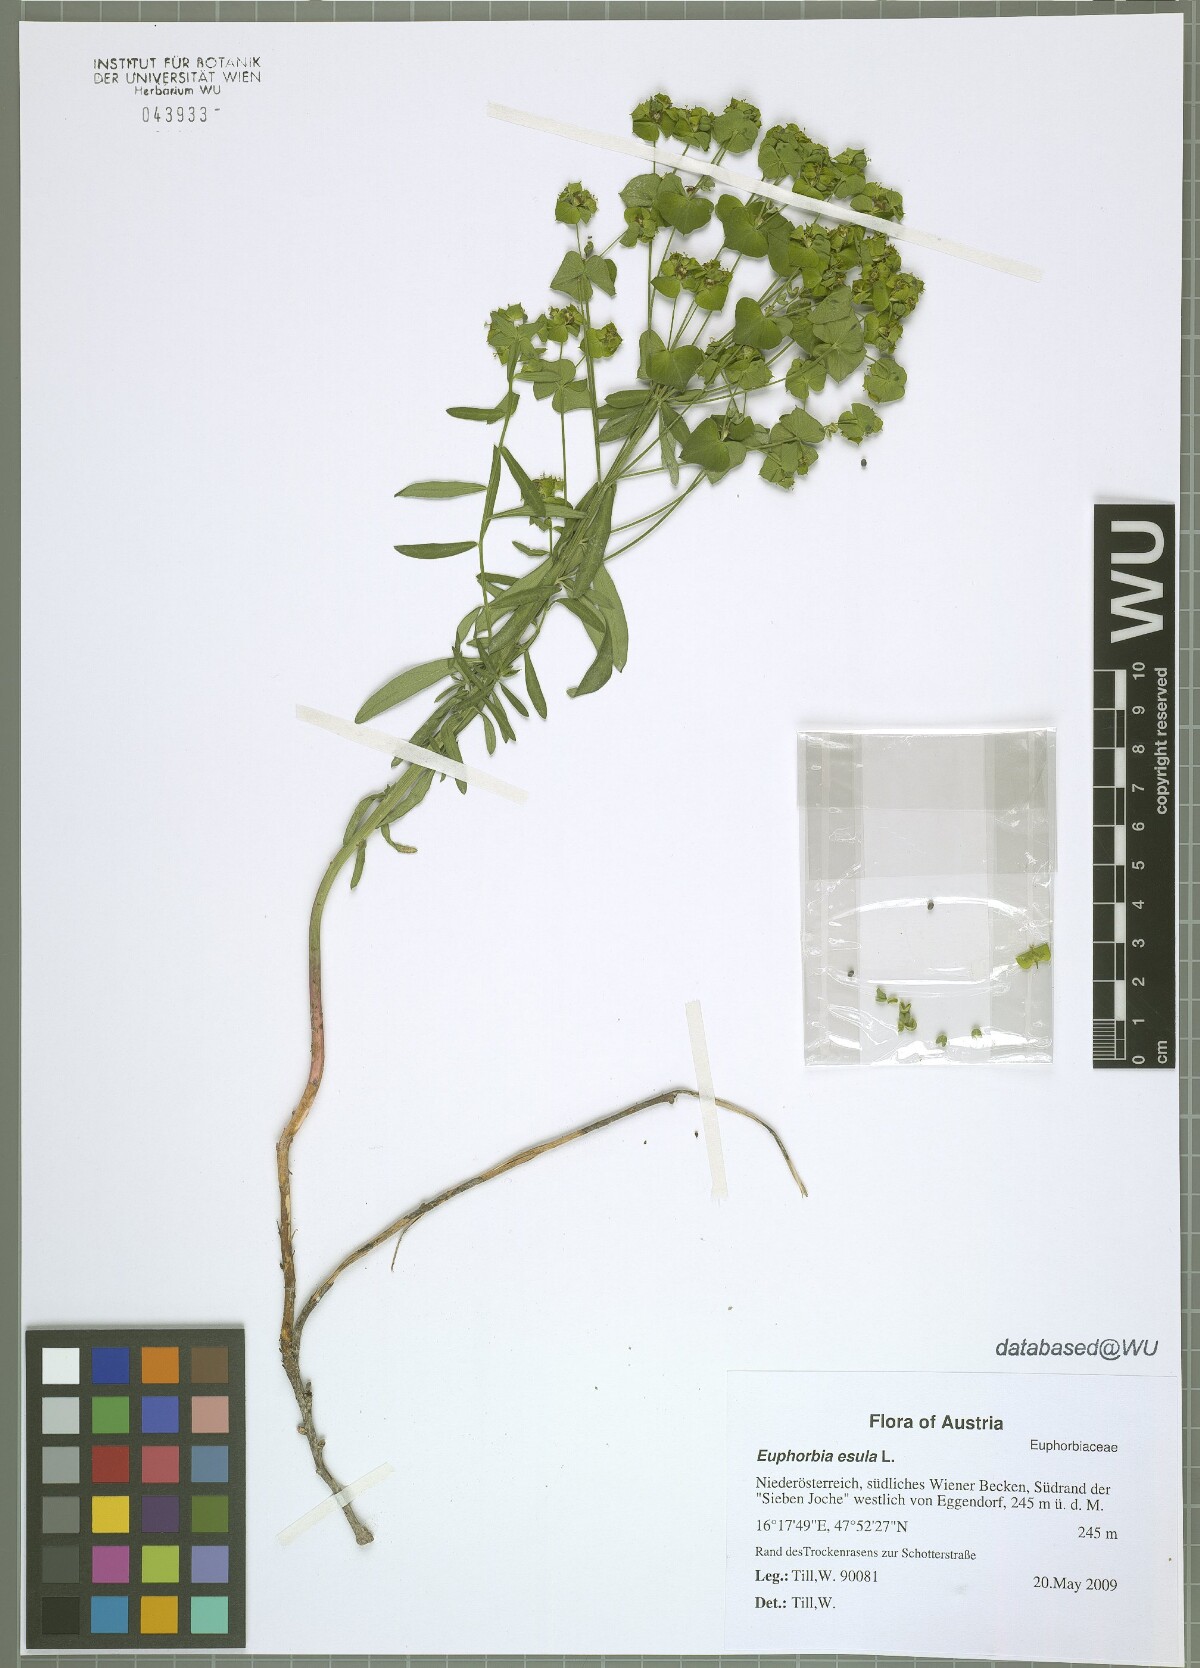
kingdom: Plantae
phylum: Tracheophyta
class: Magnoliopsida
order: Malpighiales
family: Euphorbiaceae
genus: Euphorbia
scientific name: Euphorbia esula
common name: Leafy spurge
